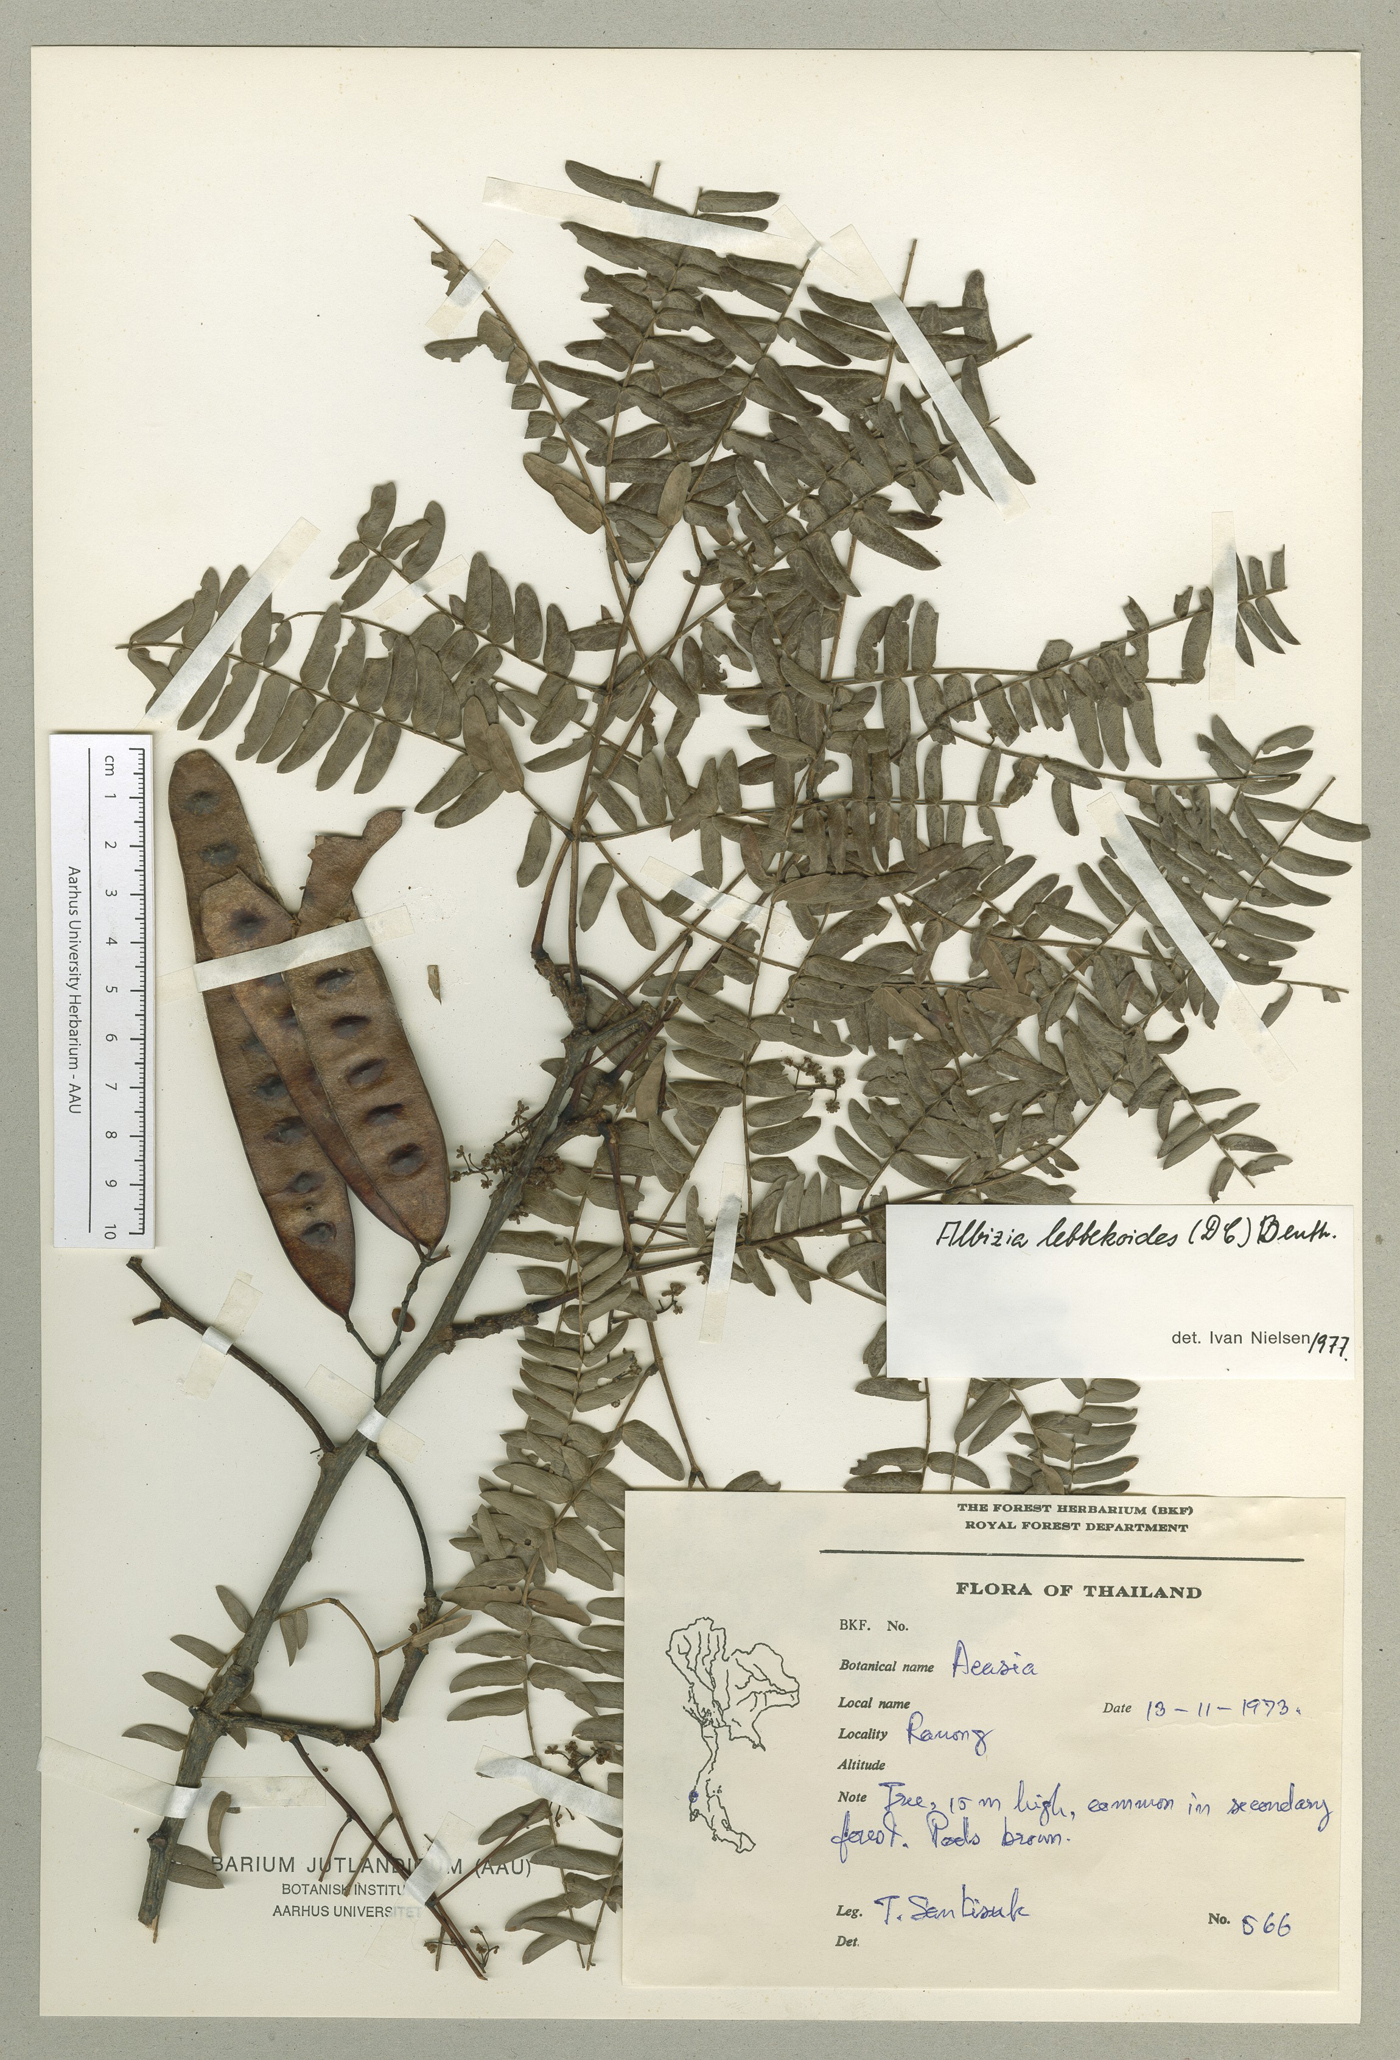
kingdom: Plantae
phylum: Tracheophyta
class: Magnoliopsida
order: Fabales
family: Fabaceae
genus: Albizia
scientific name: Albizia lebbekoides
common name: Indian albizia
